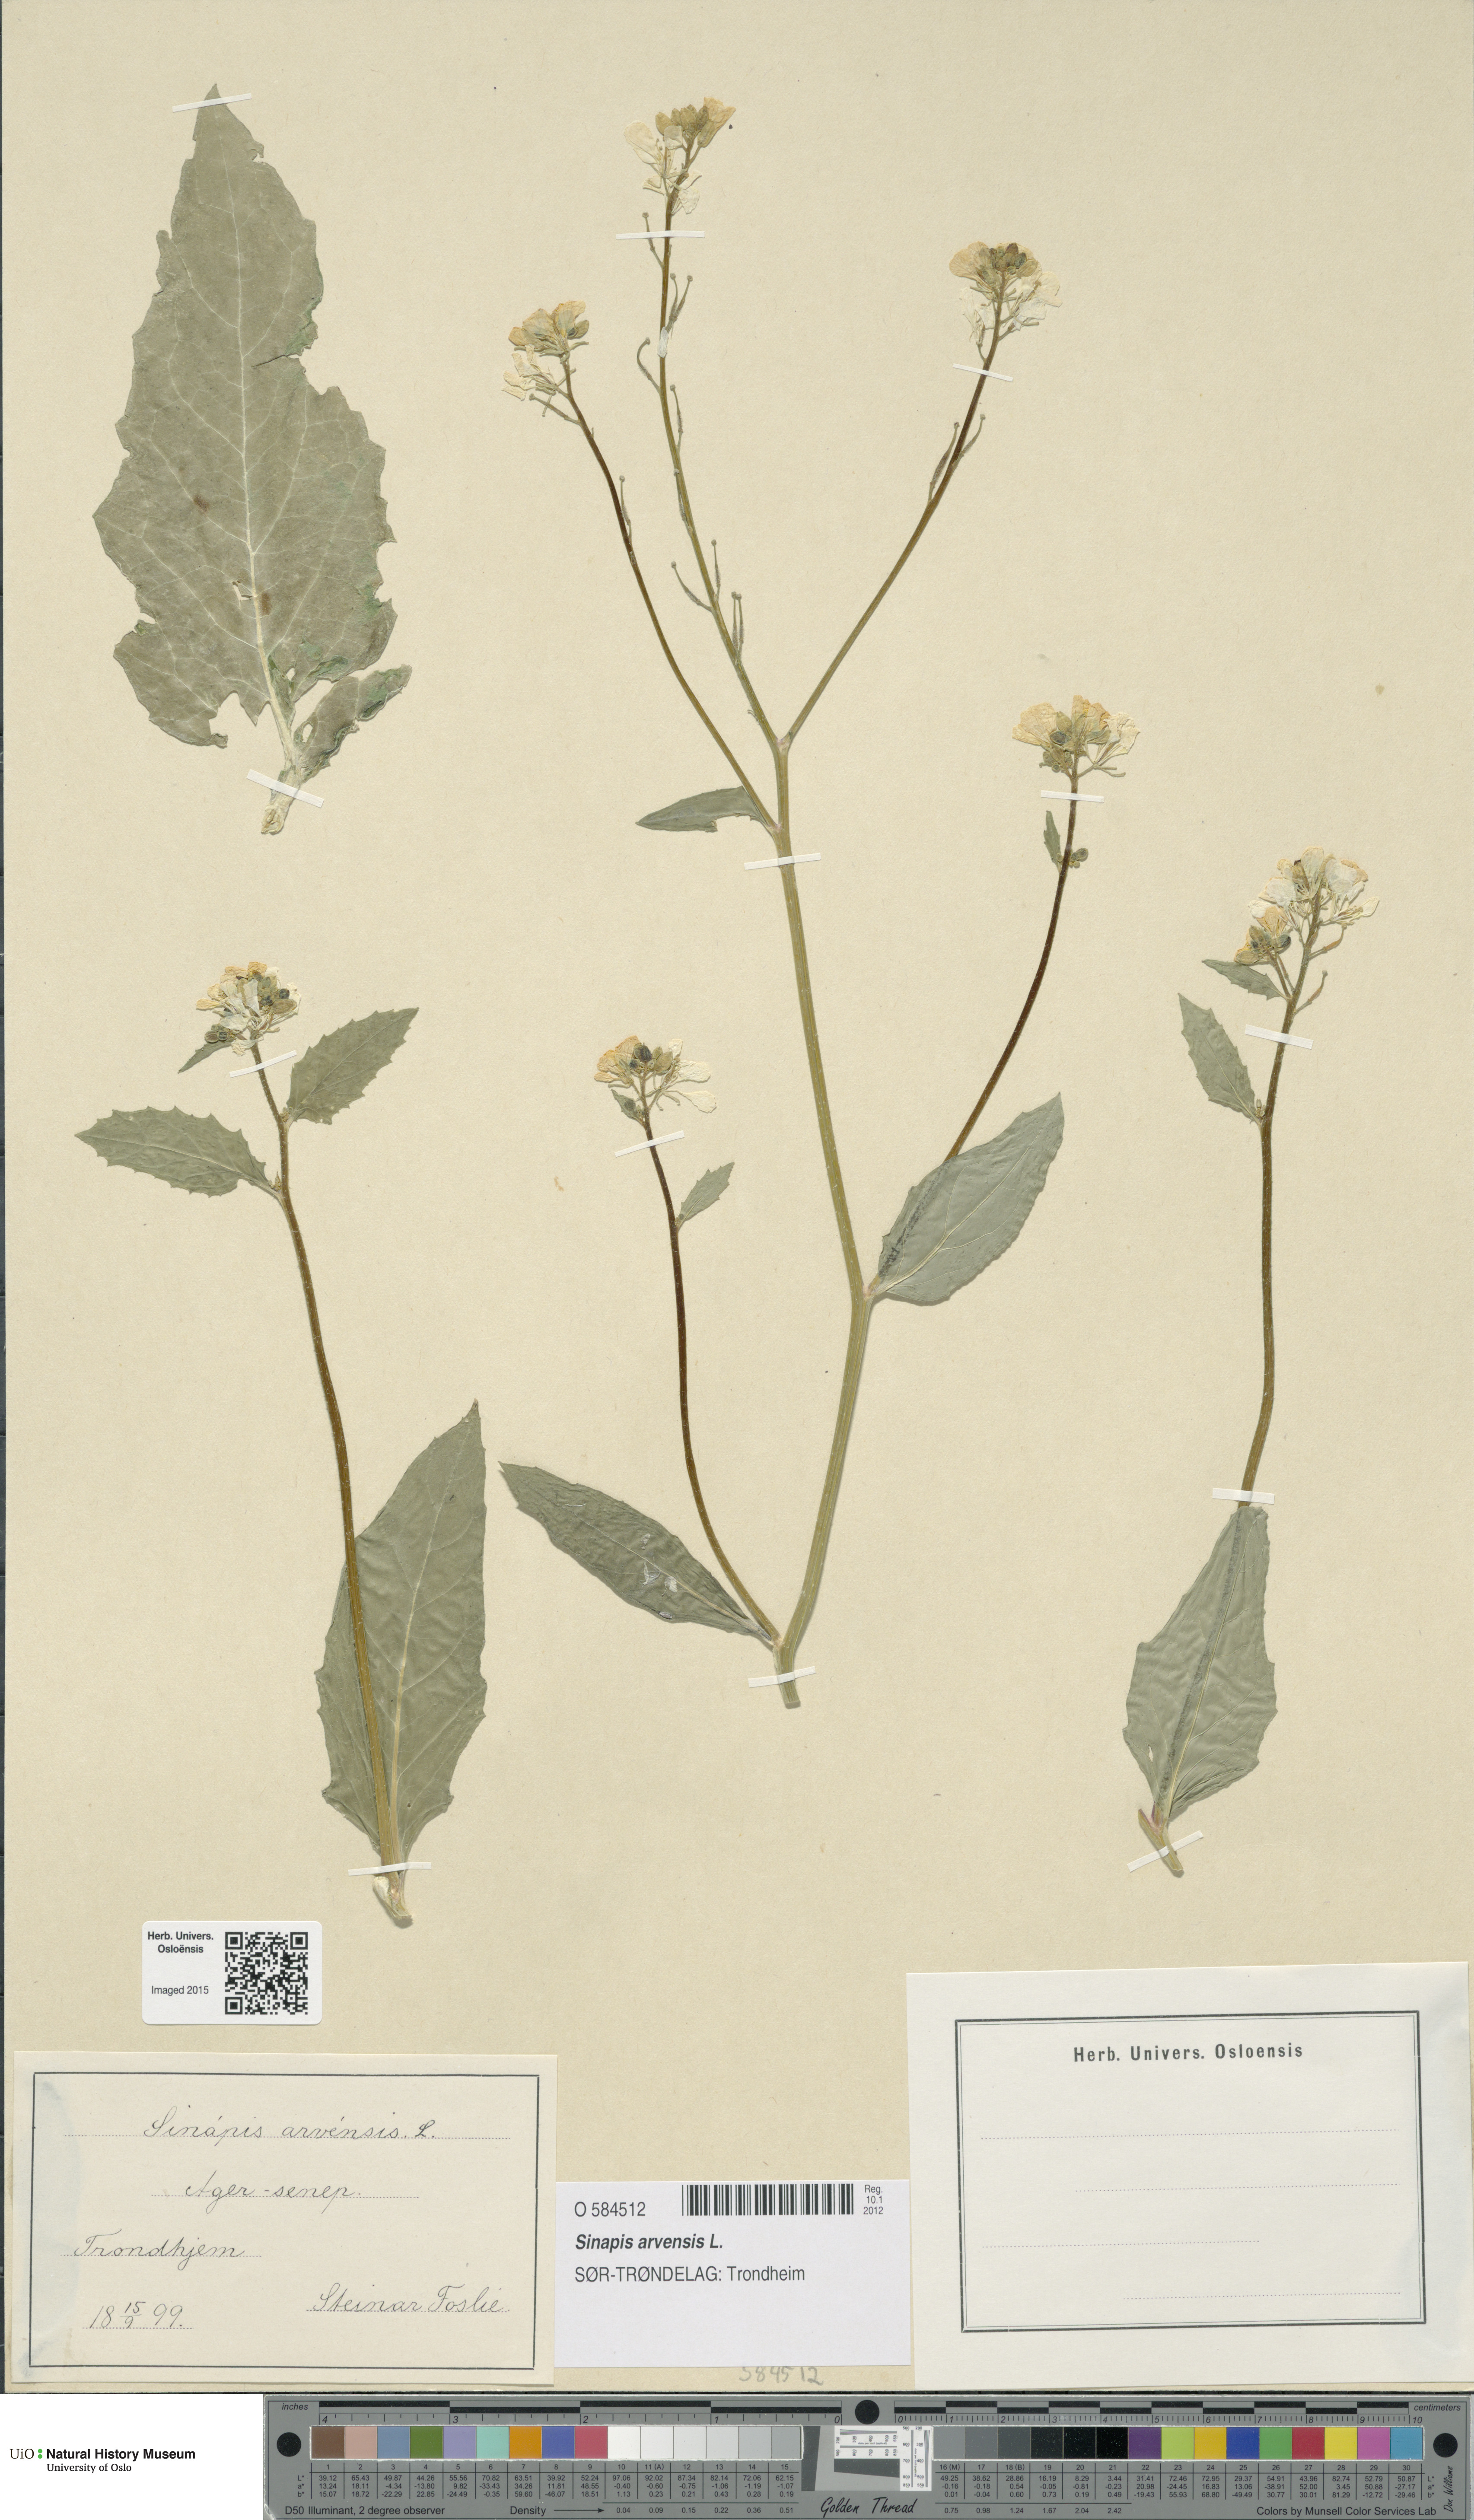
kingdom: Plantae
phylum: Tracheophyta
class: Magnoliopsida
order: Brassicales
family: Brassicaceae
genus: Sinapis
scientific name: Sinapis arvensis
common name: Charlock
